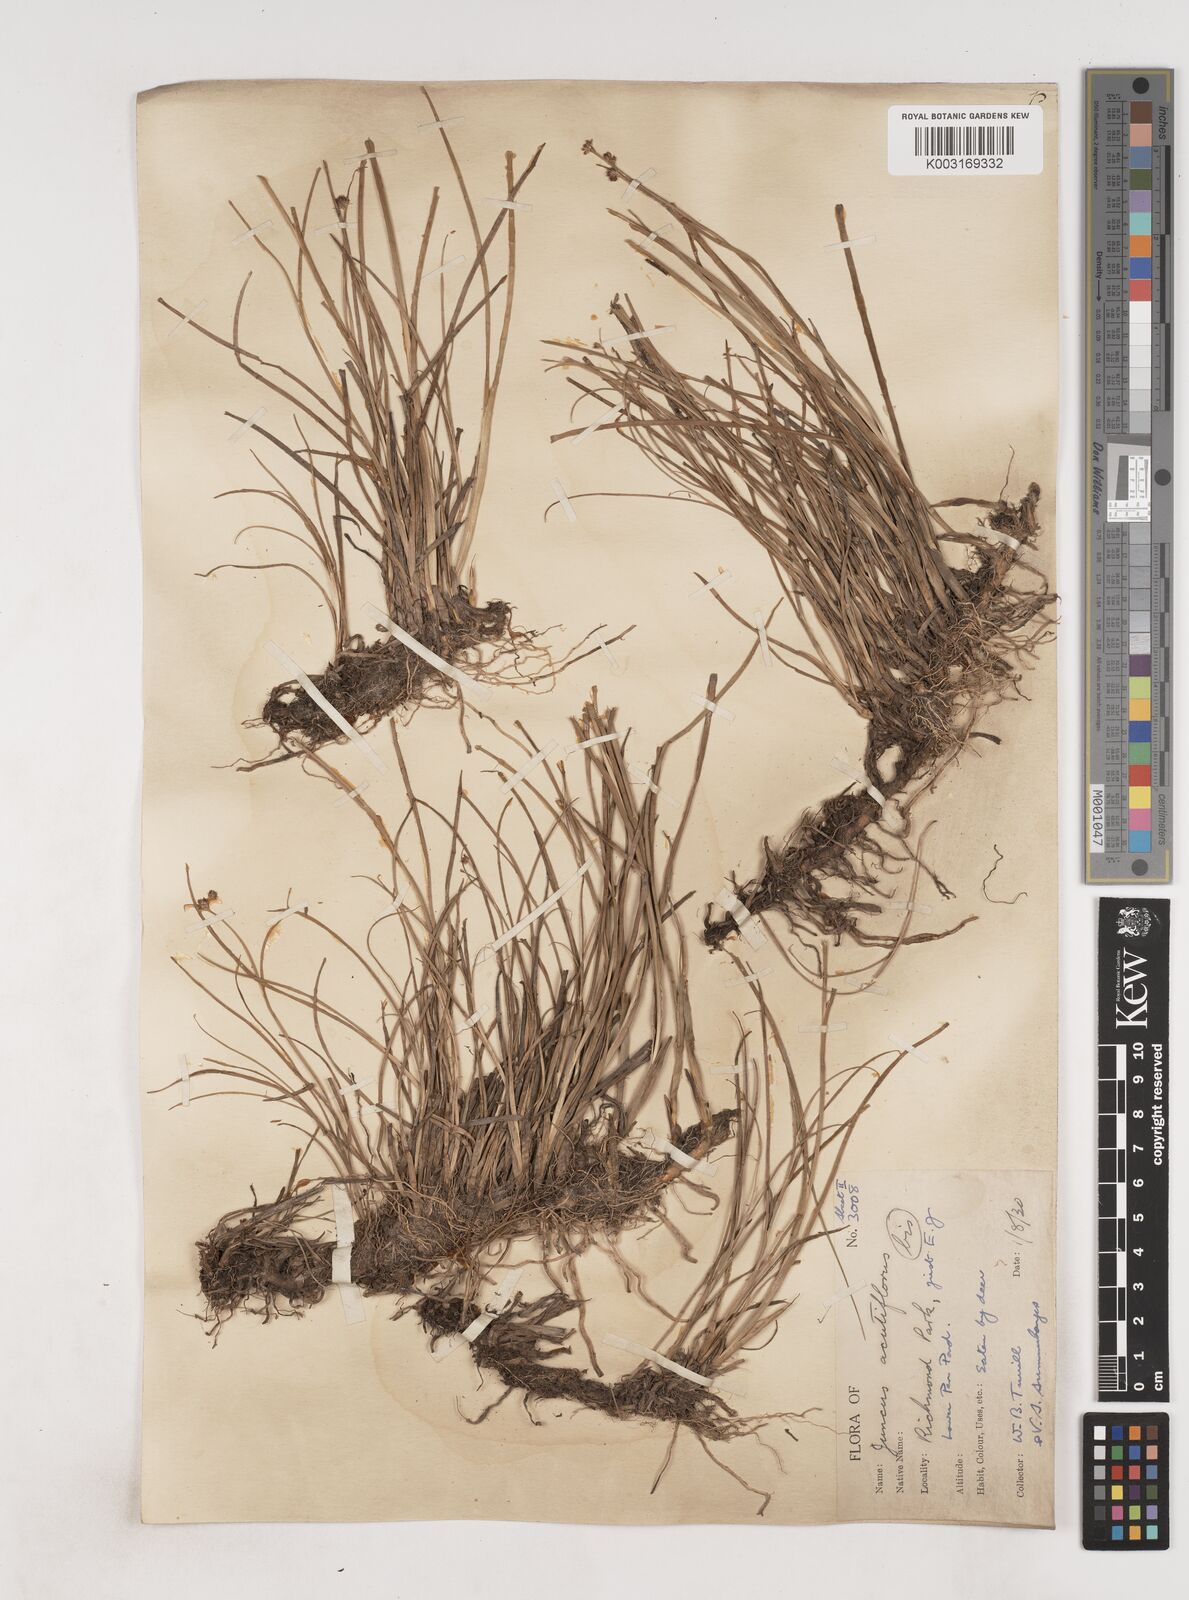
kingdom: Plantae
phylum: Tracheophyta
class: Liliopsida
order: Poales
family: Juncaceae
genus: Juncus
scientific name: Juncus acutiflorus
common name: Sharp-flowered rush
